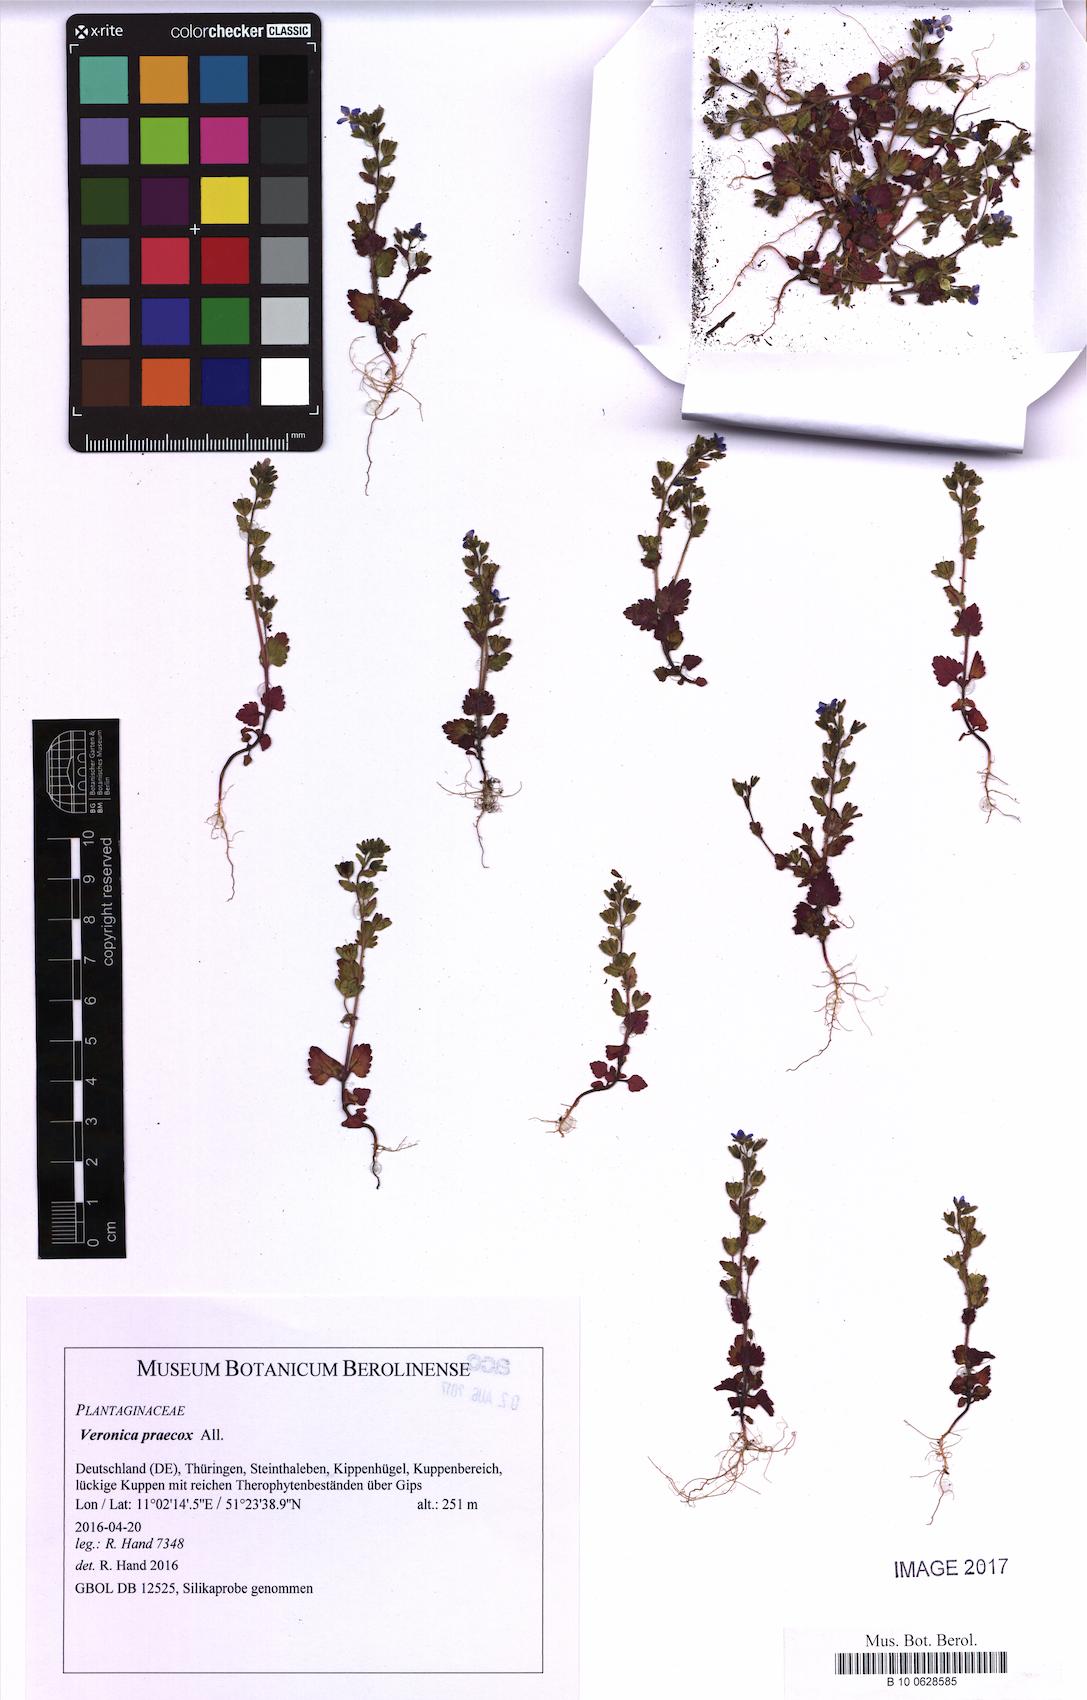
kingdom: Plantae
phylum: Tracheophyta
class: Magnoliopsida
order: Lamiales
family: Plantaginaceae
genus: Veronica
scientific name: Veronica praecox
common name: Breckland speedwell
